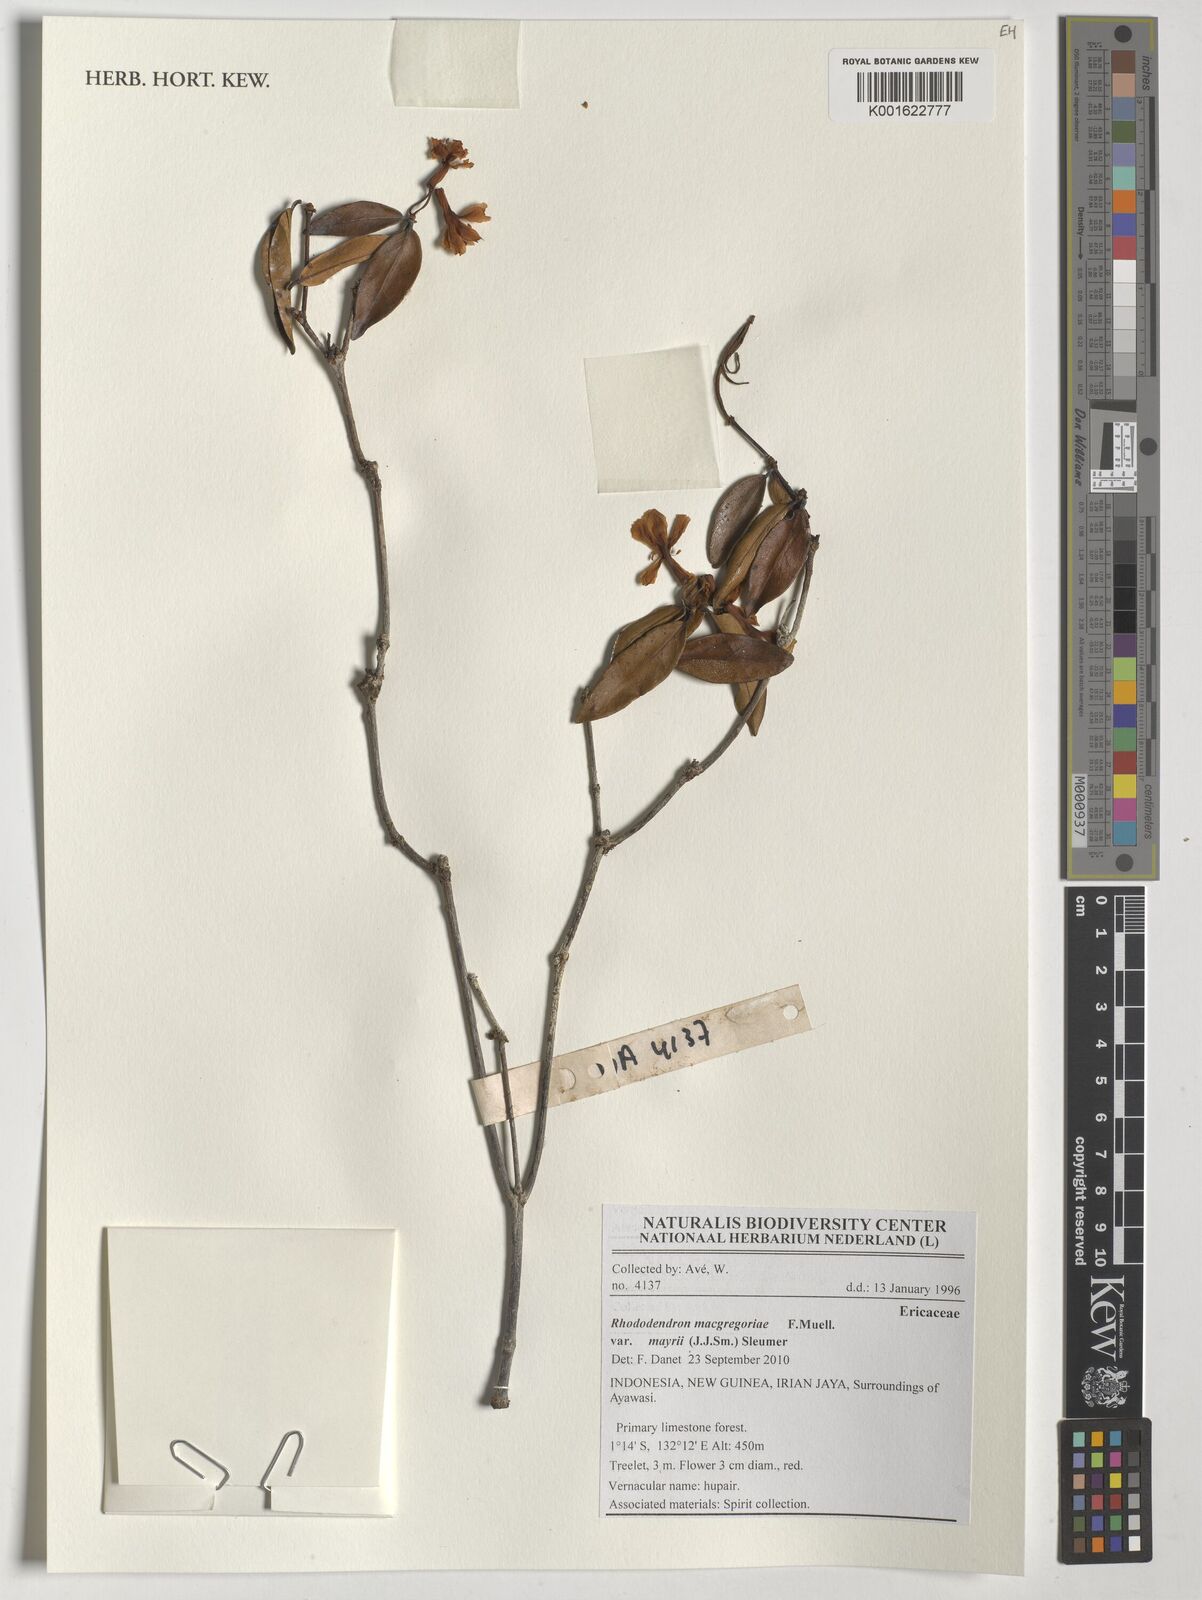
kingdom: Plantae
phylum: Tracheophyta
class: Magnoliopsida
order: Ericales
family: Ericaceae
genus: Rhododendron
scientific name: Rhododendron macgregoriae
